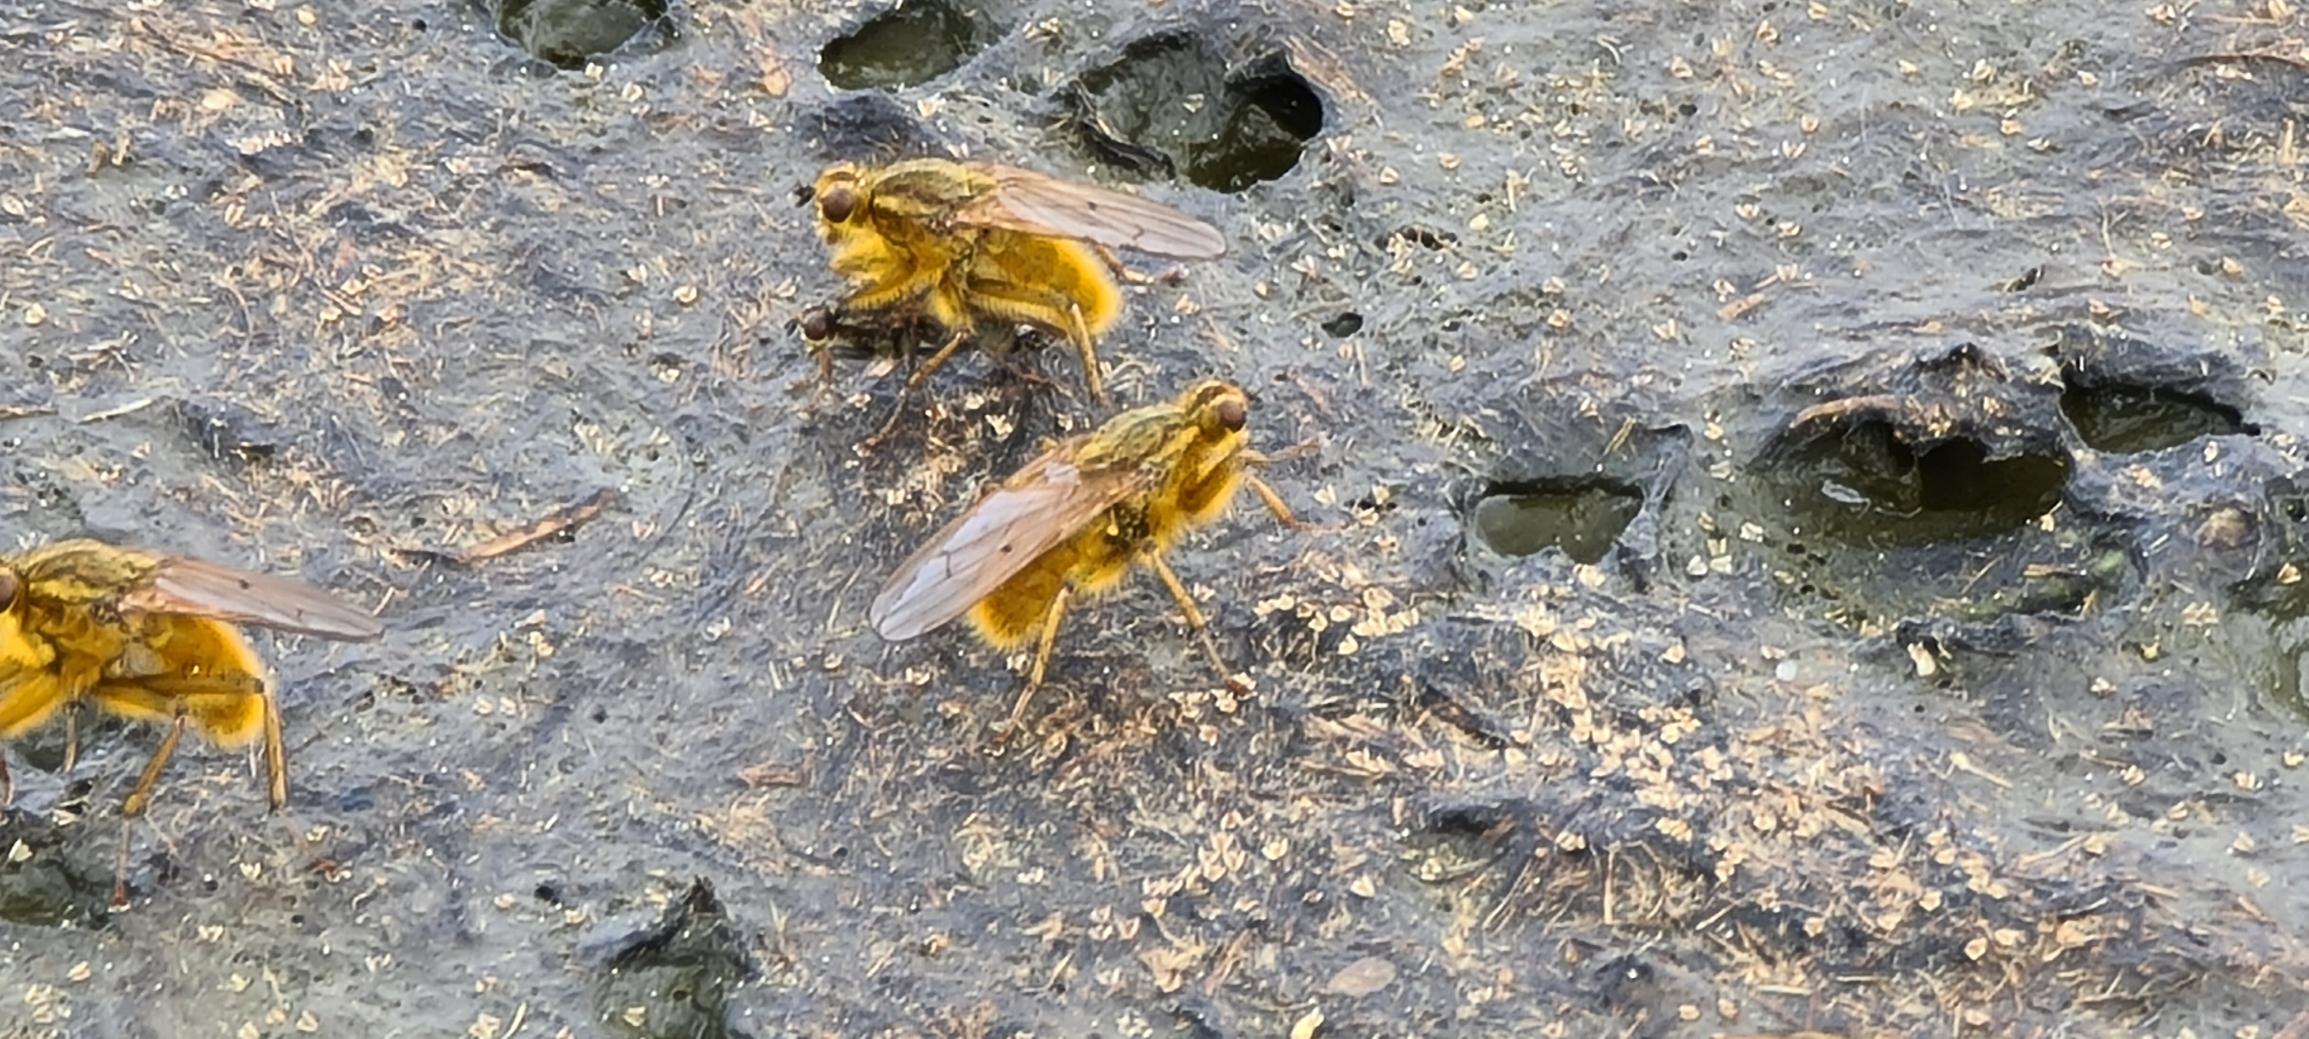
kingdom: Animalia
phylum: Arthropoda
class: Insecta
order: Diptera
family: Scathophagidae
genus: Scathophaga
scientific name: Scathophaga stercoraria
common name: Almindelig gødningsflue
